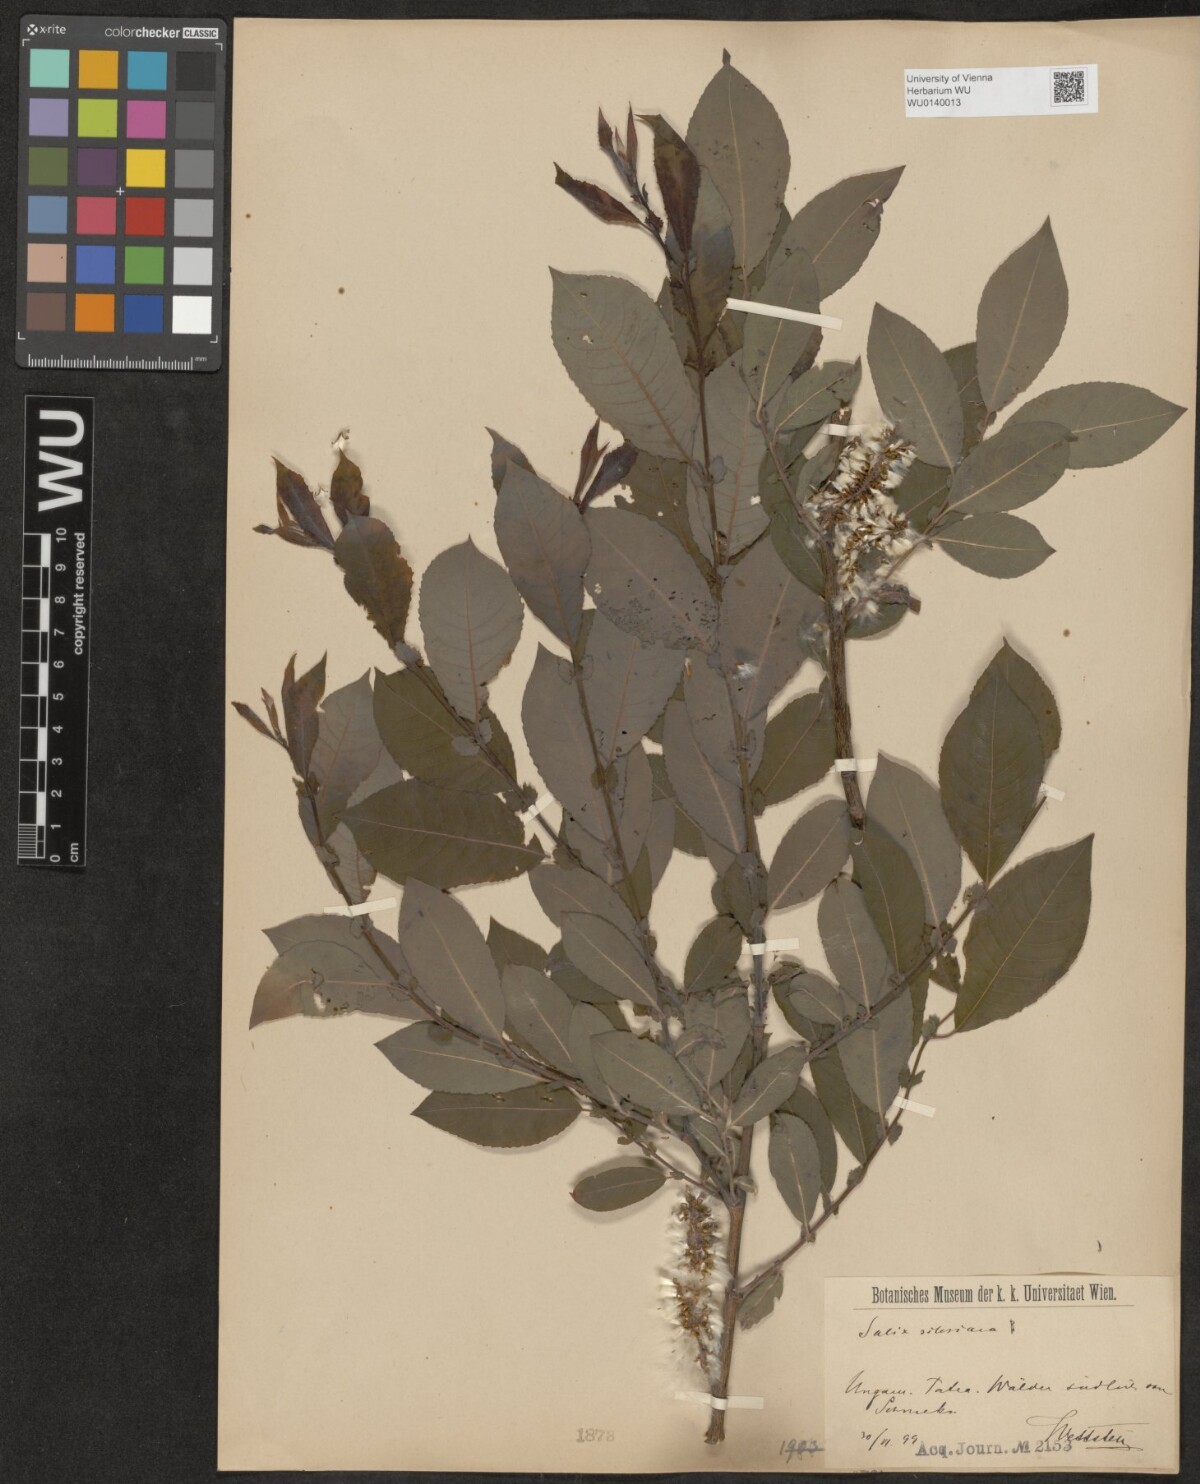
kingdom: Plantae
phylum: Tracheophyta
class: Magnoliopsida
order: Malpighiales
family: Salicaceae
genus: Salix
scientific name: Salix silesiaca
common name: Silesian willow
